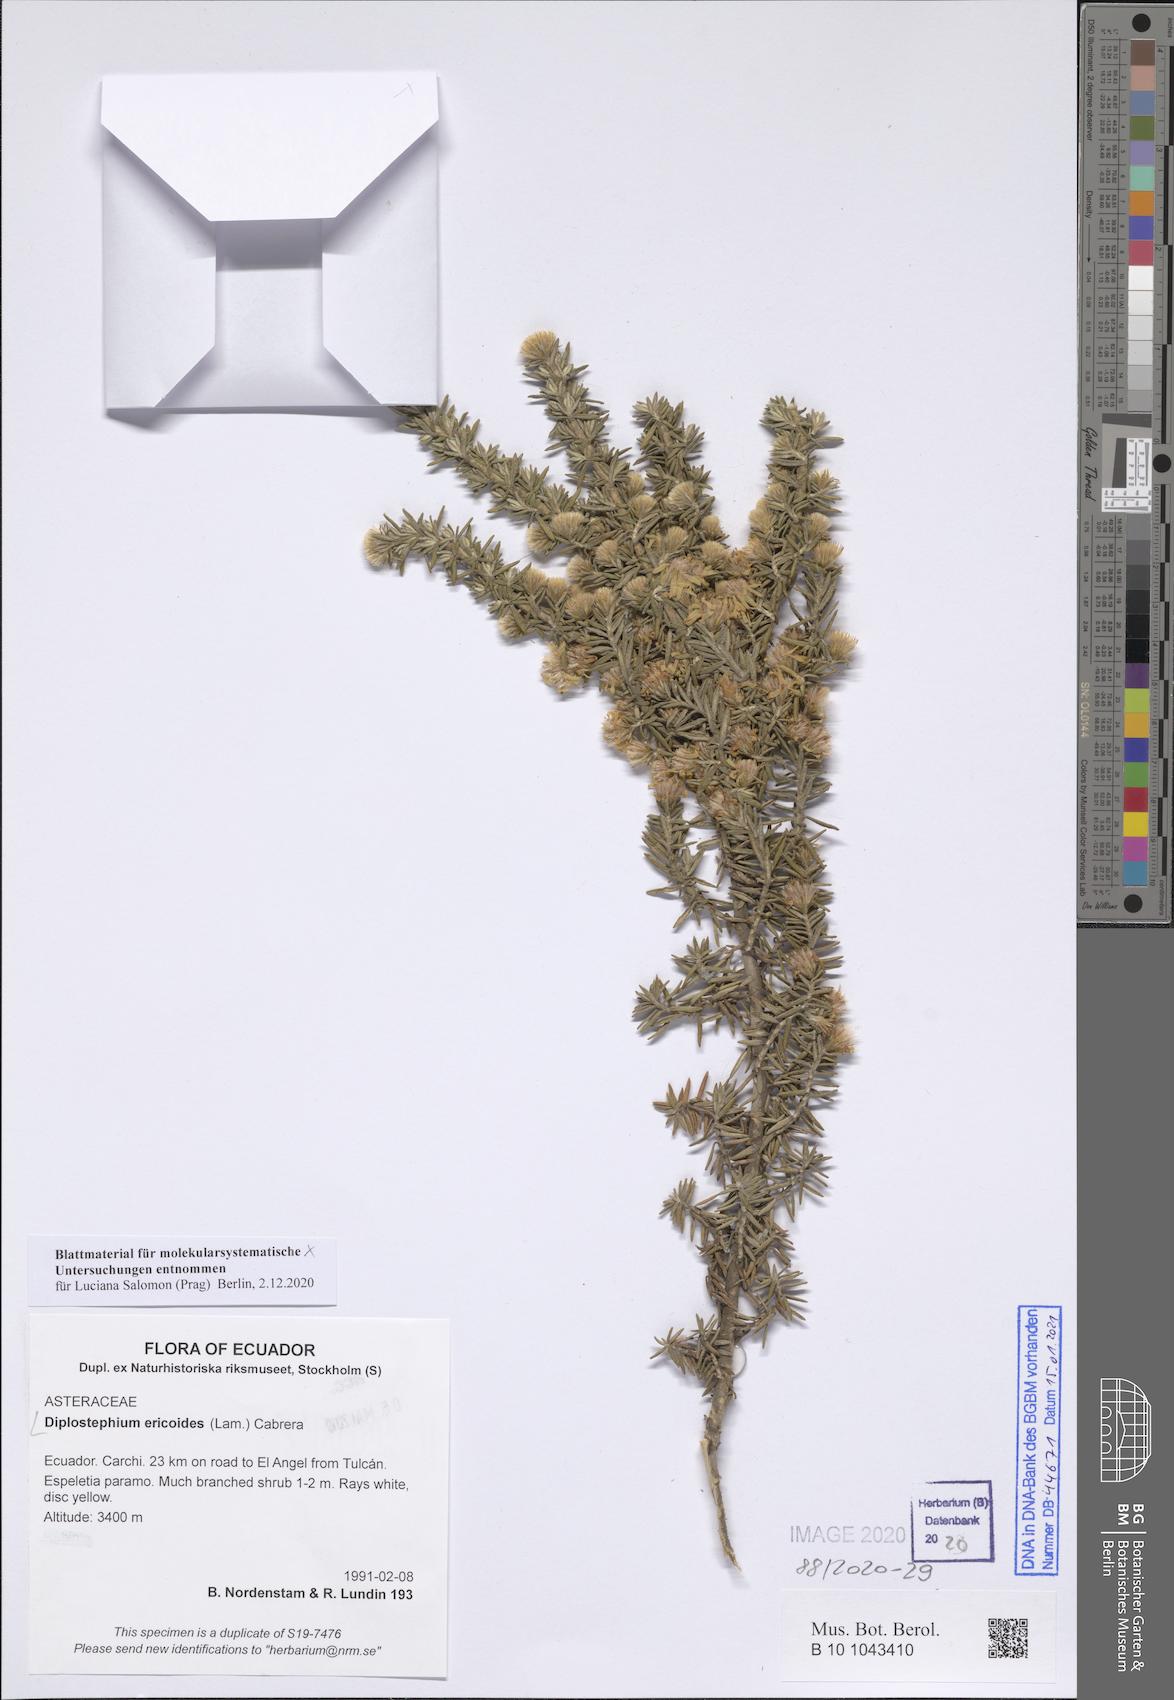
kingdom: Plantae
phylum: Tracheophyta
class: Magnoliopsida
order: Asterales
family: Asteraceae
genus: Diplostephium
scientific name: Diplostephium ericoides
